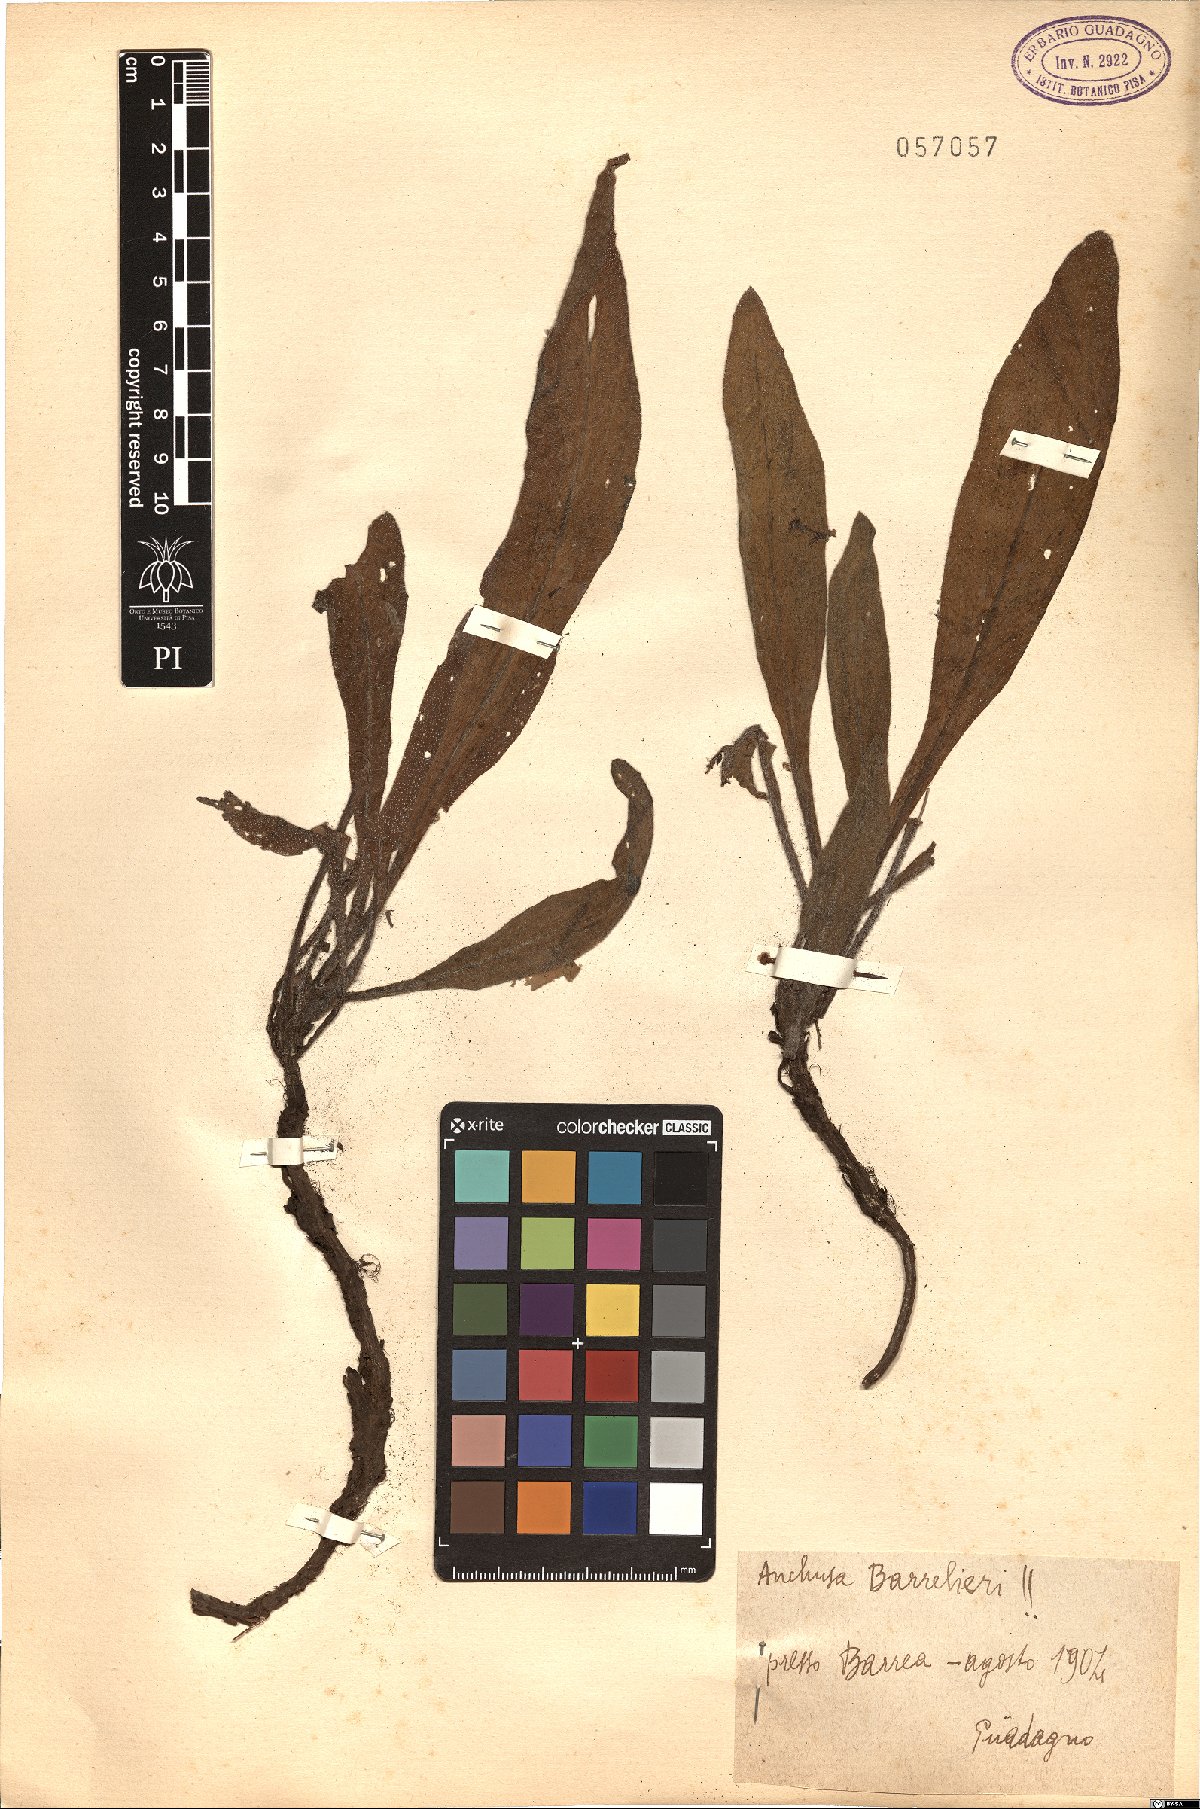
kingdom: Plantae
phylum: Tracheophyta
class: Magnoliopsida
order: Boraginales
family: Boraginaceae
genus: Cynoglottis
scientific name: Cynoglottis barrelieri
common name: False alkanet
